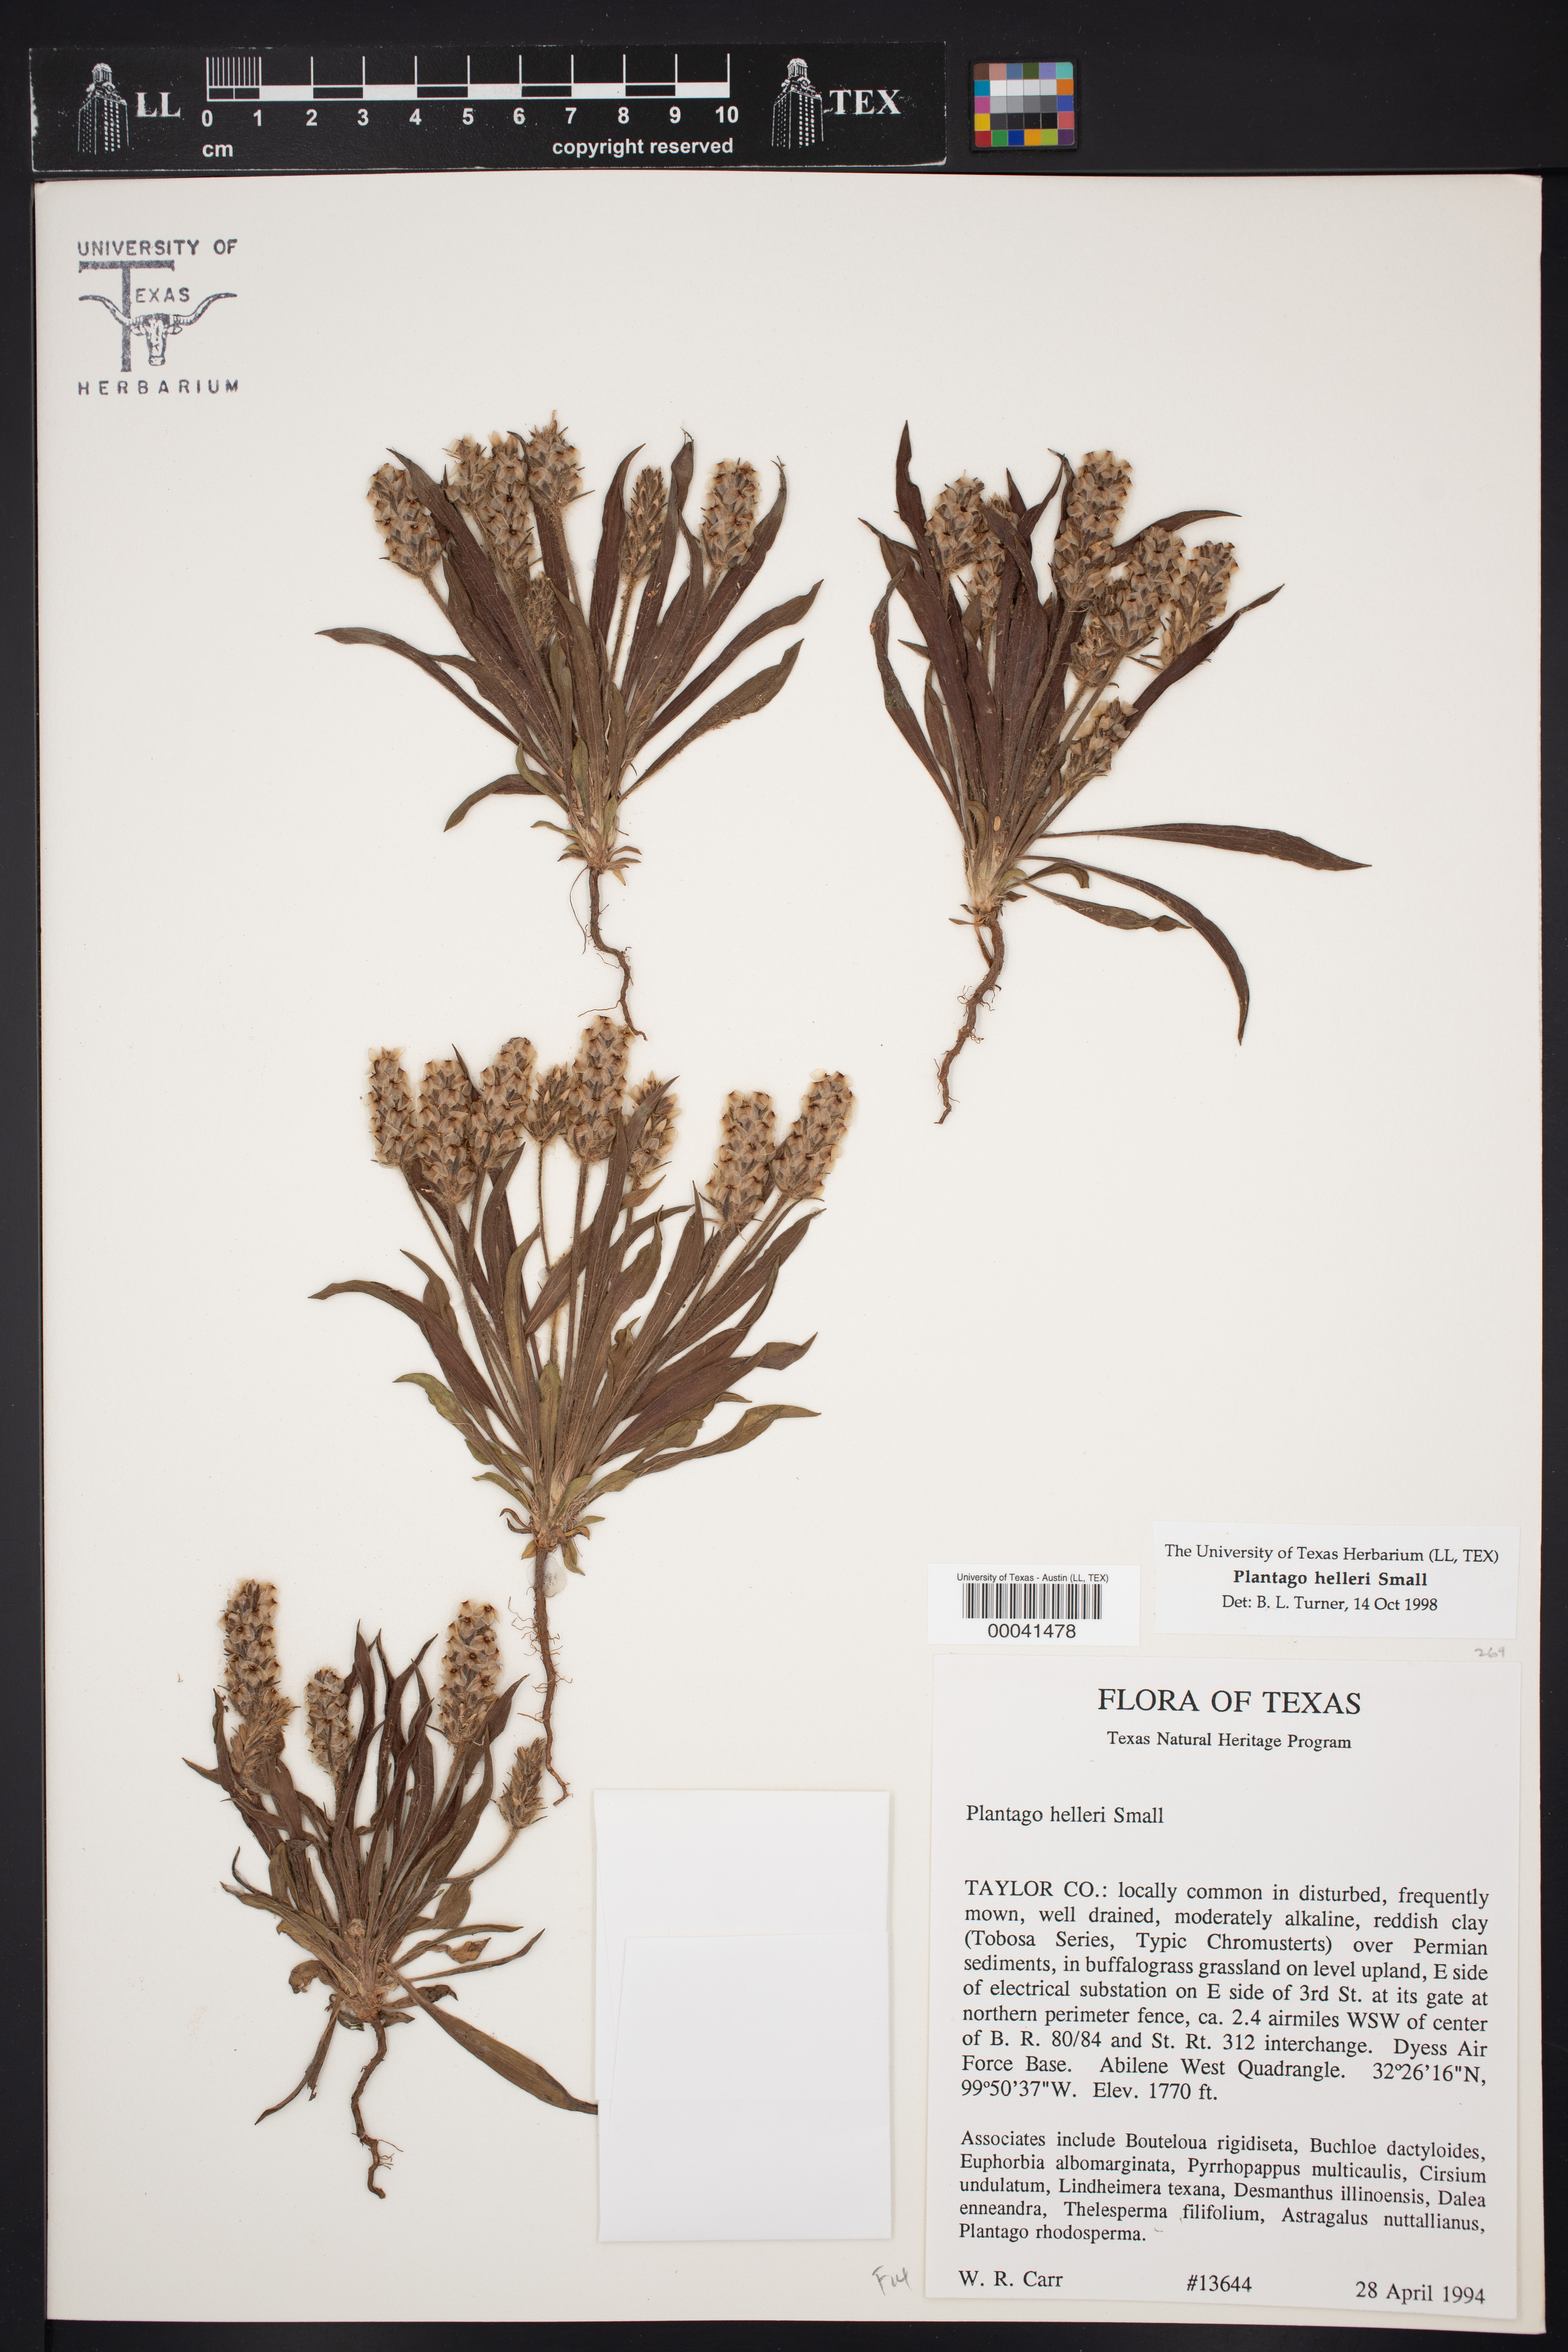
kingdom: Plantae
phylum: Tracheophyta
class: Magnoliopsida
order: Lamiales
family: Plantaginaceae
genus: Plantago
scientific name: Plantago helleri
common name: Heller's plantain
